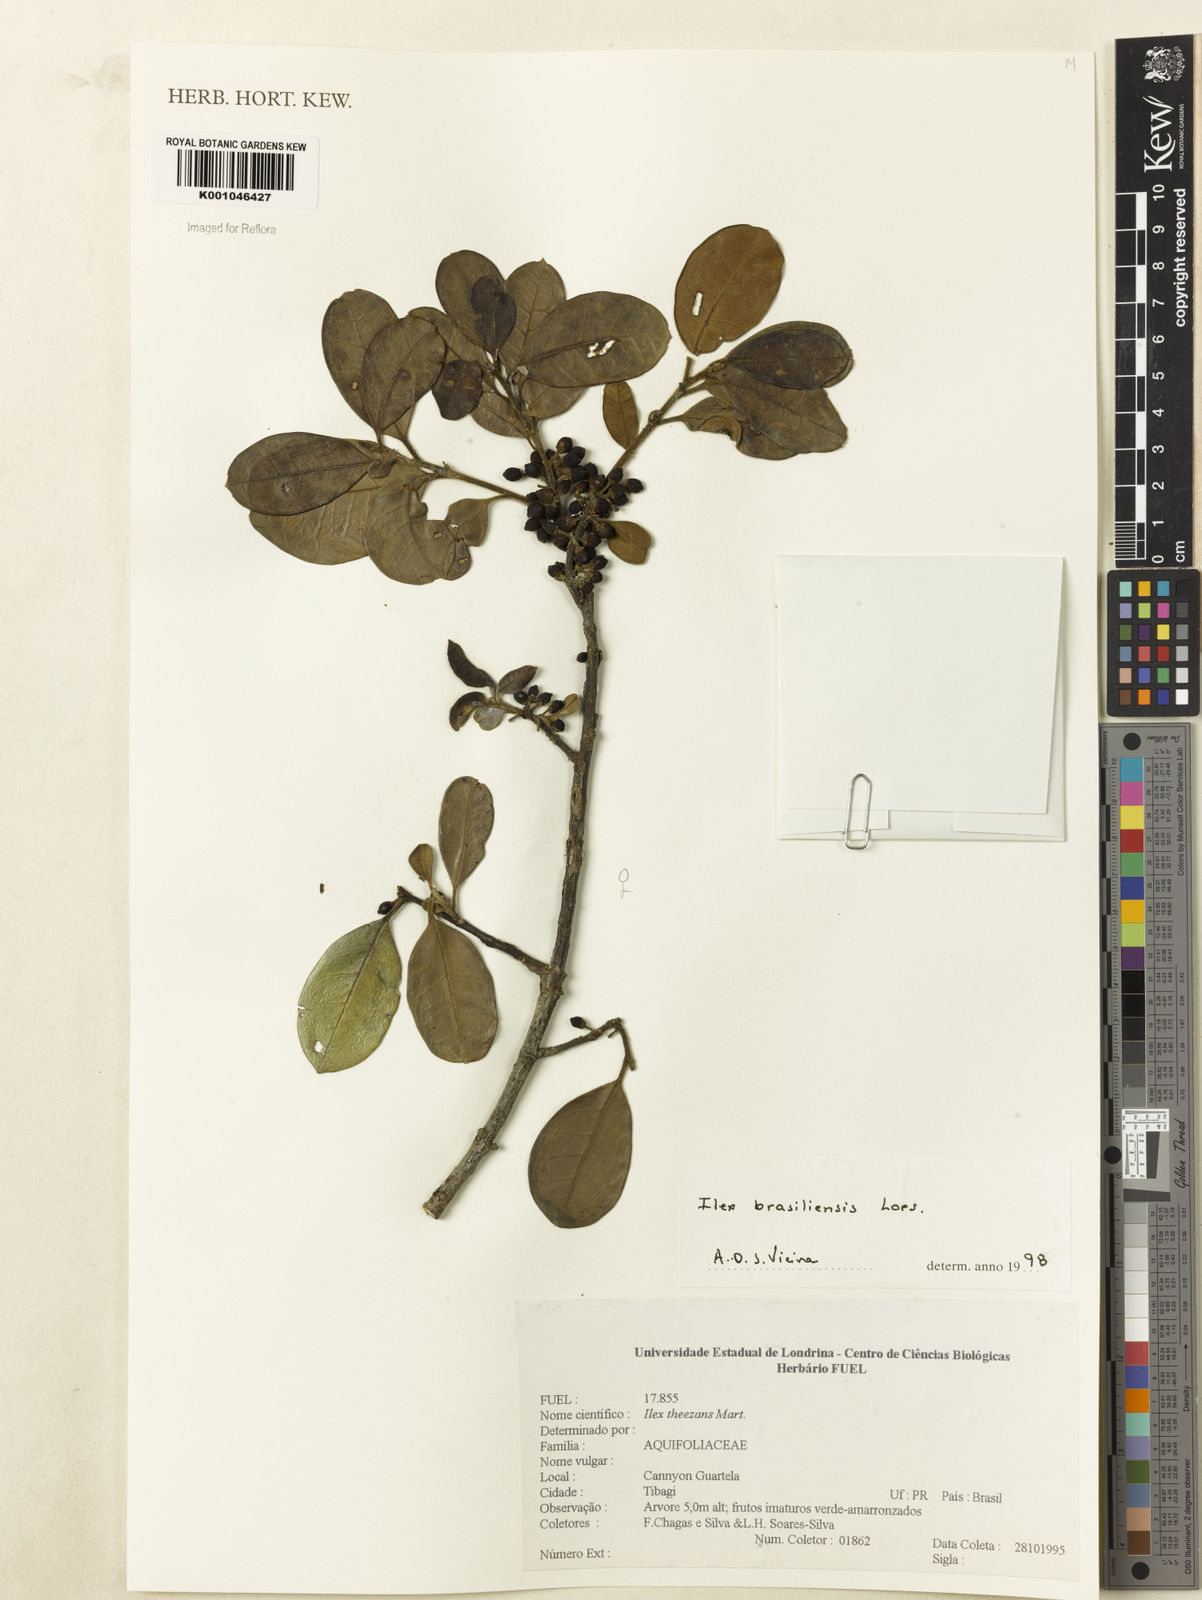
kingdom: Plantae
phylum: Tracheophyta
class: Magnoliopsida
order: Aquifoliales
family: Aquifoliaceae
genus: Ilex
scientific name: Ilex brasiliensis
